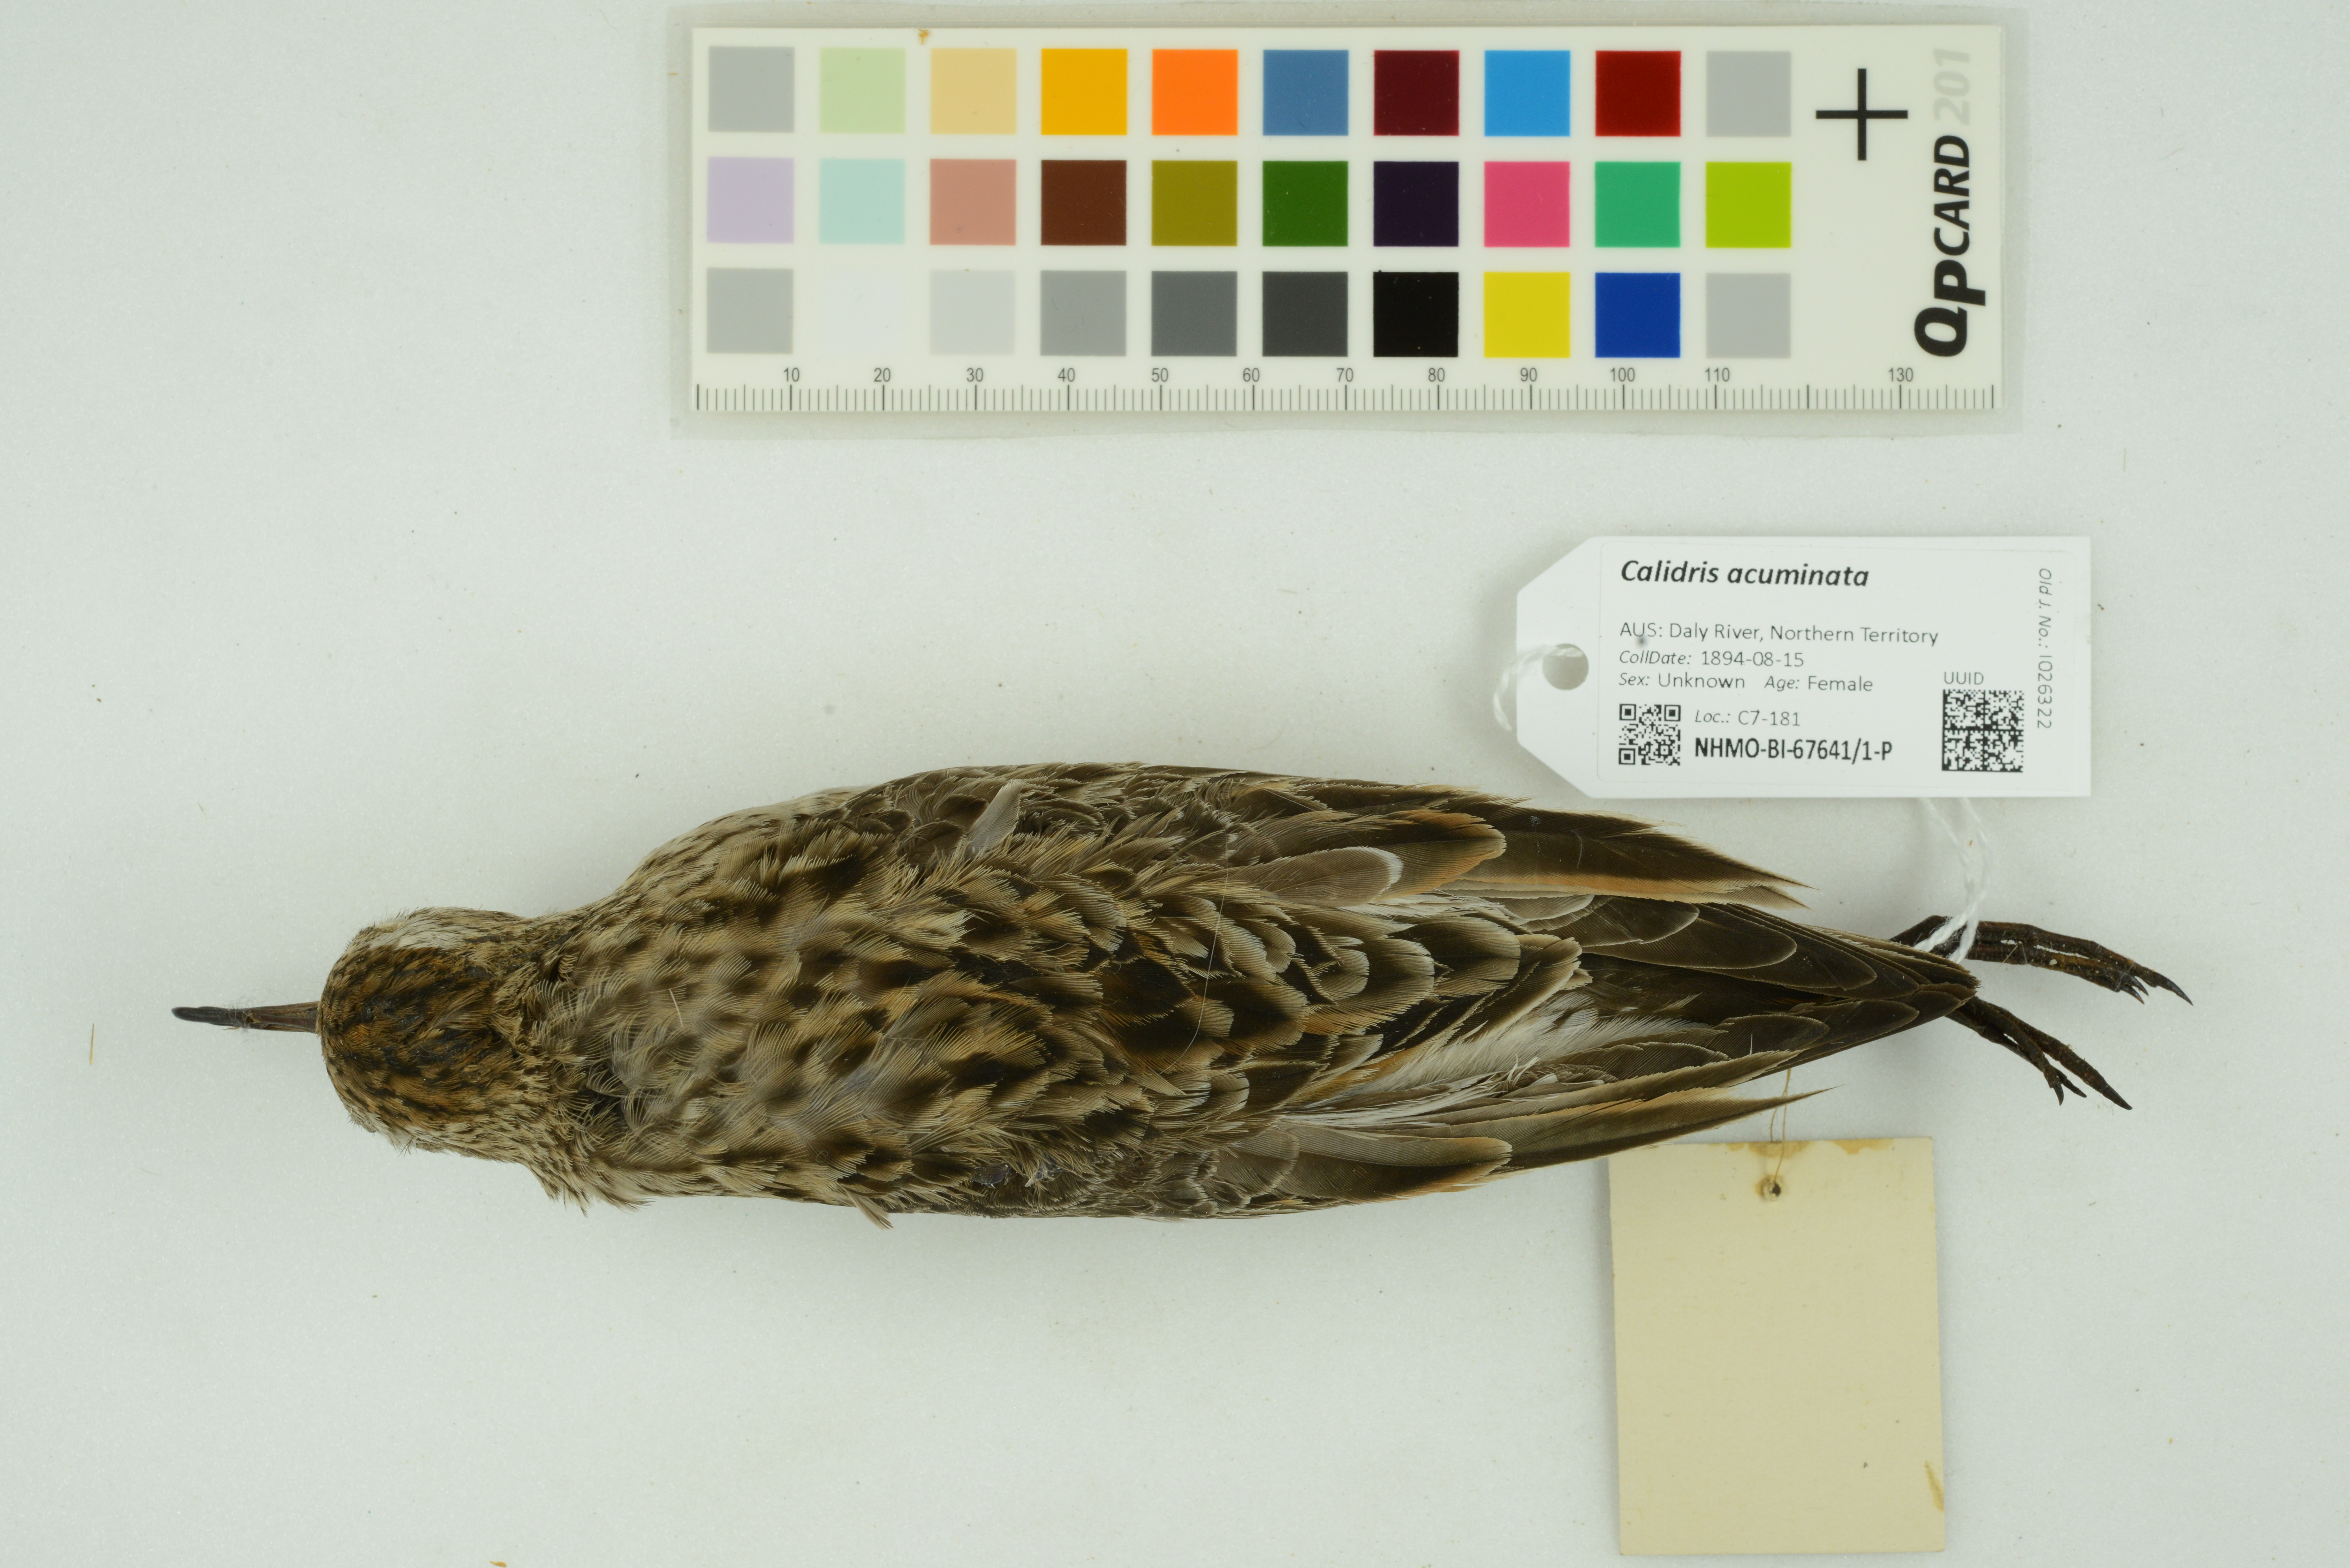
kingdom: Animalia
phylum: Chordata
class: Aves
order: Charadriiformes
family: Scolopacidae
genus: Calidris
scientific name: Calidris acuminata
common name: Sharp-tailed sandpiper
